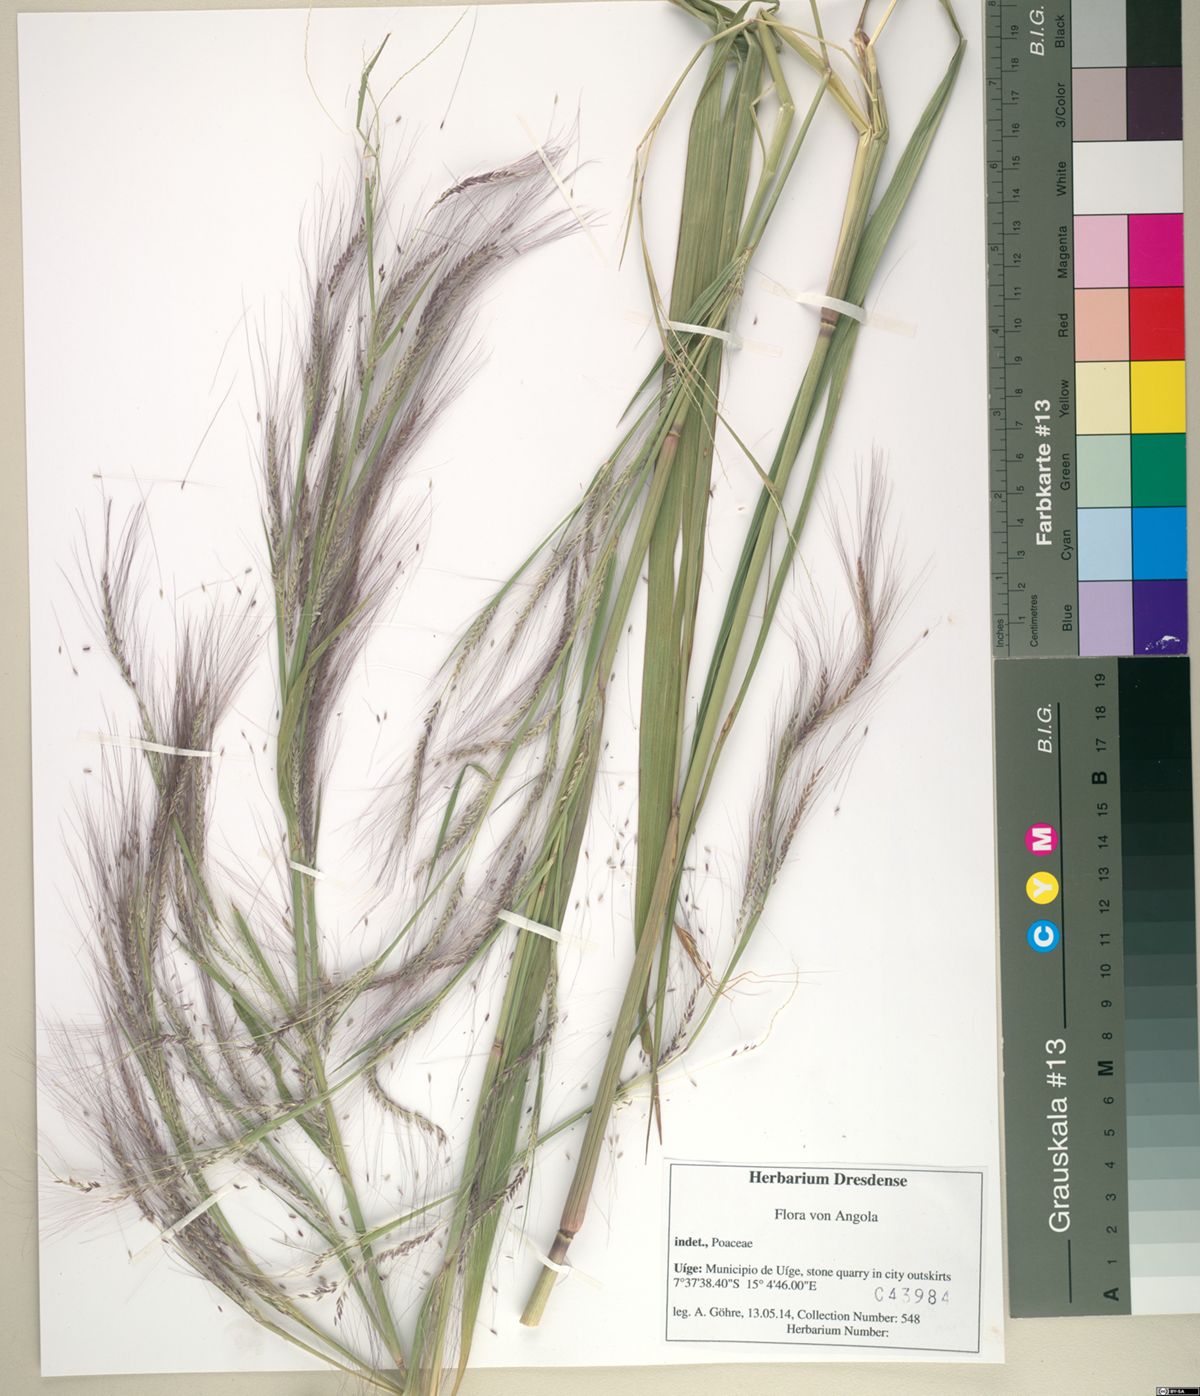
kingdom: Plantae
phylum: Tracheophyta
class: Liliopsida
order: Poales
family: Poaceae
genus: Cenchrus
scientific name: Cenchrus unisetus
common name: Natal grass
